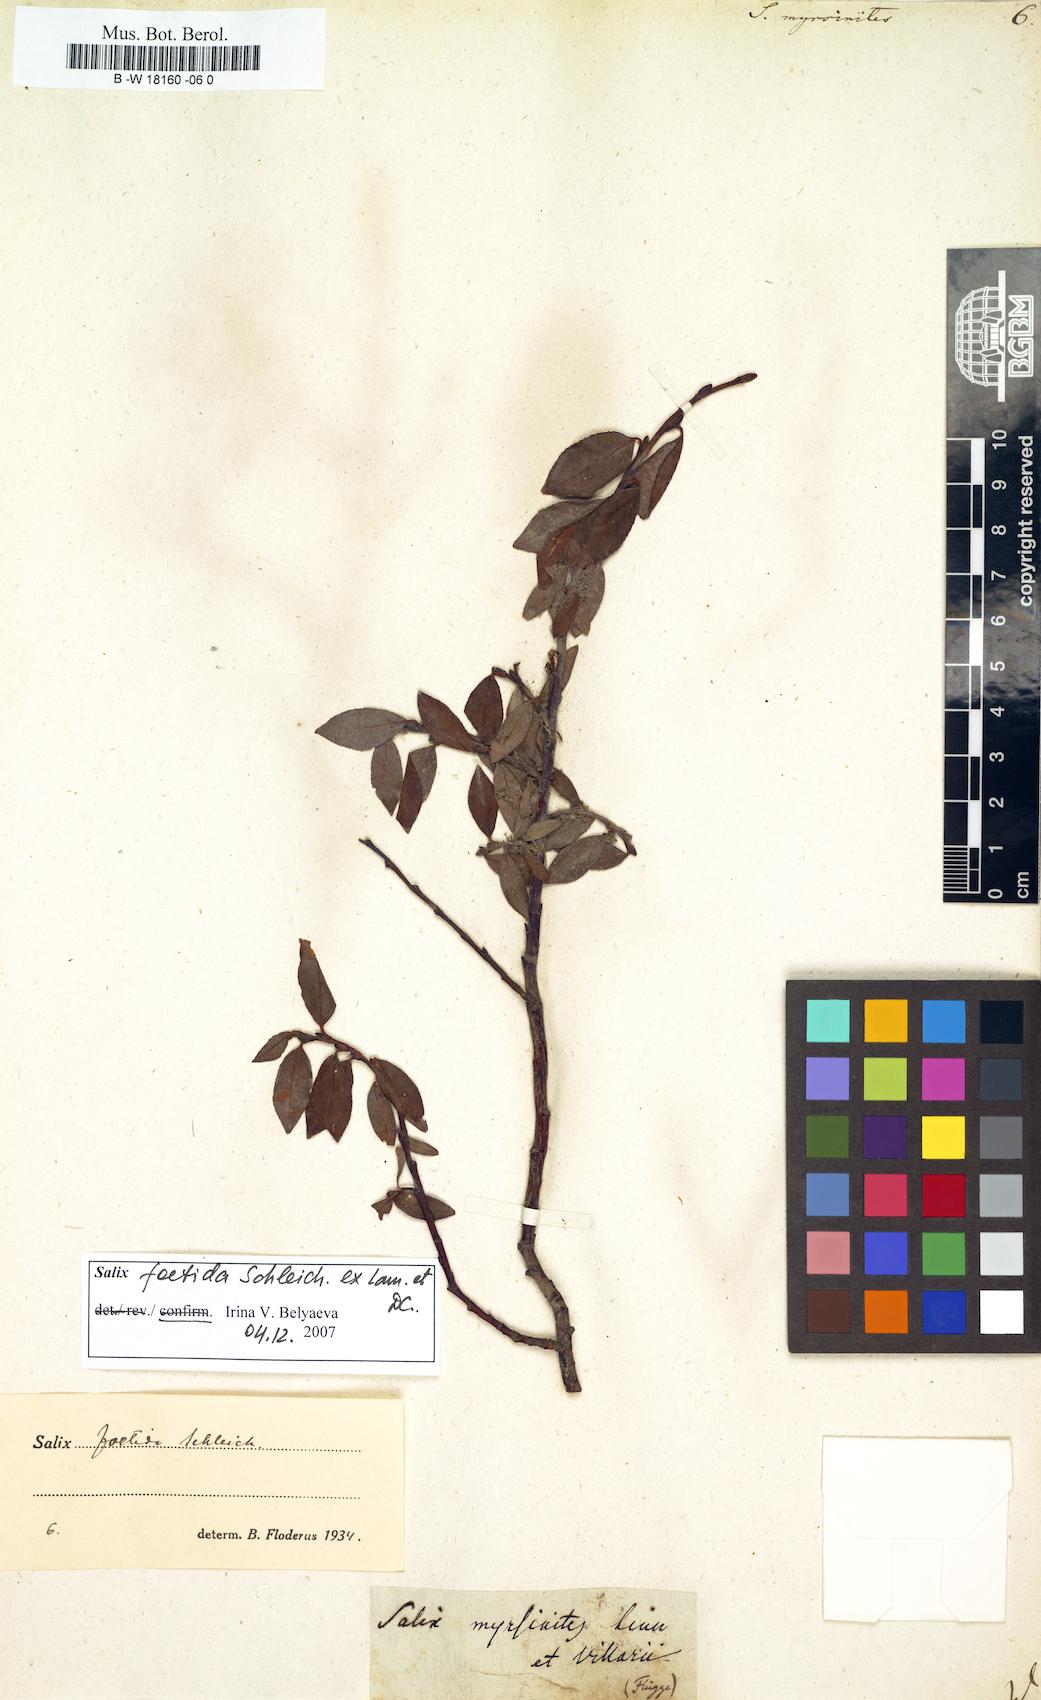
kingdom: Plantae
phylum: Tracheophyta
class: Magnoliopsida
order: Malpighiales
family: Salicaceae
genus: Salix
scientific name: Salix myrsinites
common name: Myrtle willow
